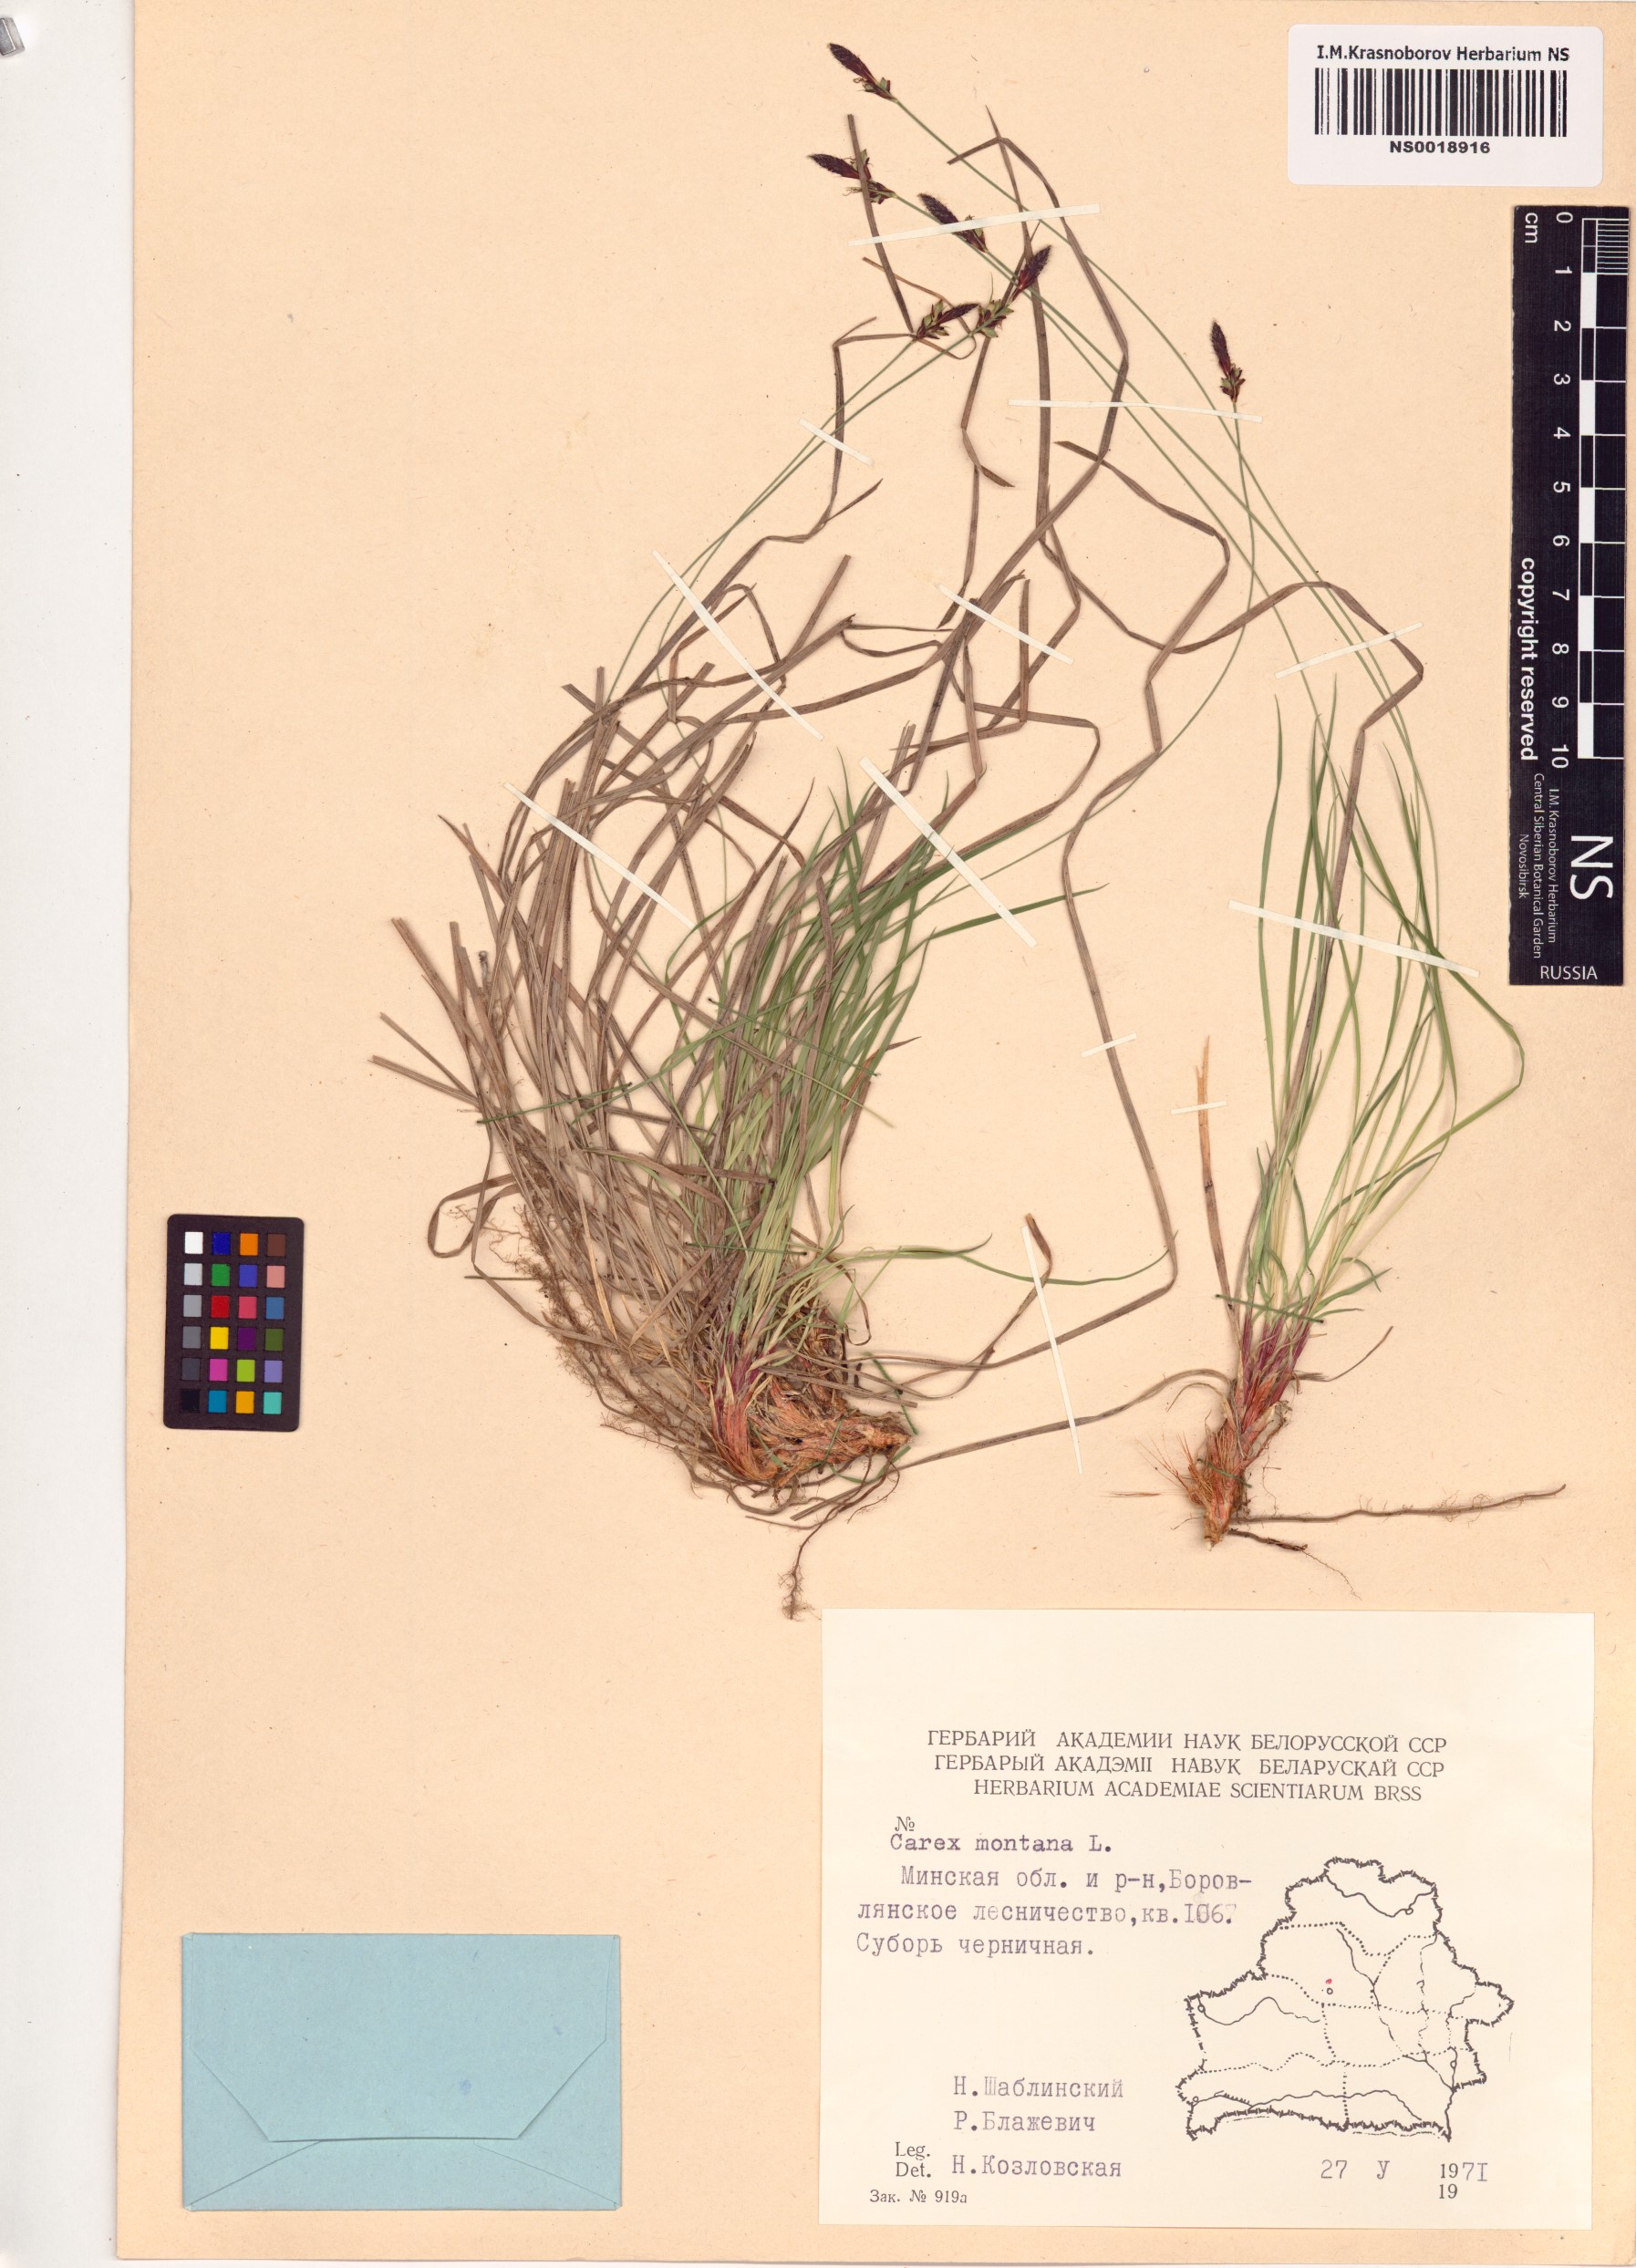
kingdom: Plantae
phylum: Tracheophyta
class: Liliopsida
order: Poales
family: Cyperaceae
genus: Carex
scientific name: Carex montana
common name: Soft-leaved sedge
